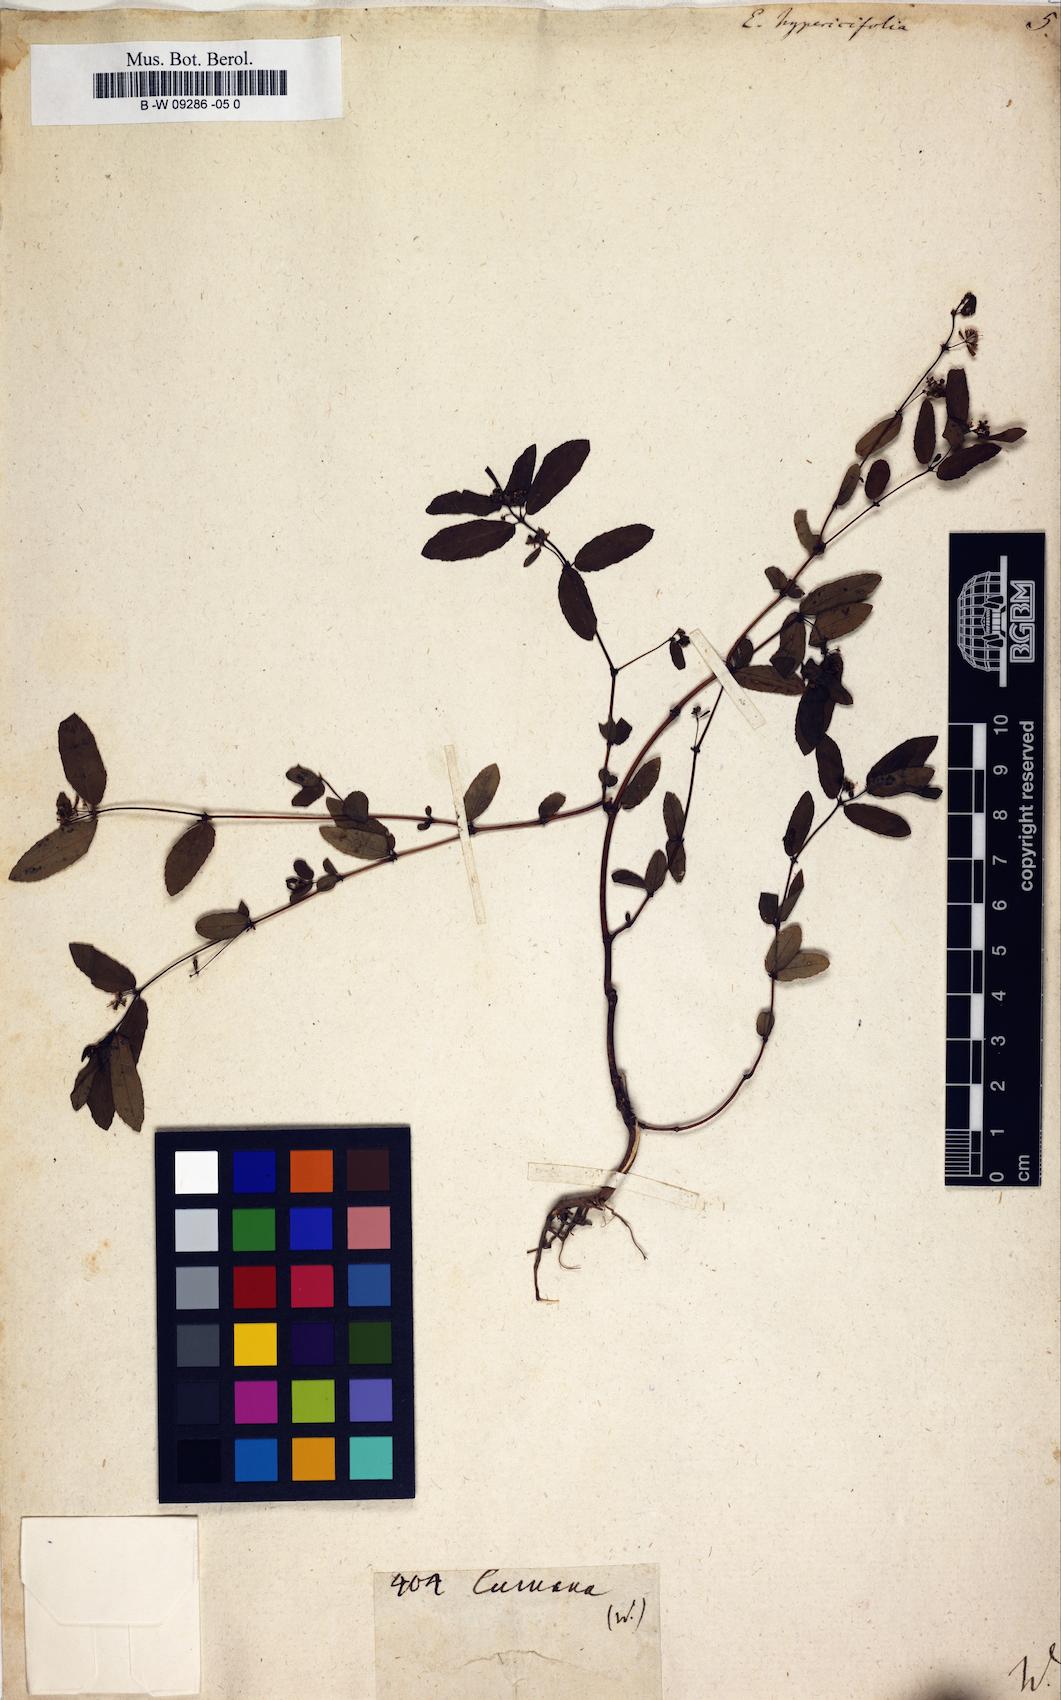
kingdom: Plantae
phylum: Tracheophyta
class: Magnoliopsida
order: Malpighiales
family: Euphorbiaceae
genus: Euphorbia
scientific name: Euphorbia hypericifolia
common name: Graceful sandmat
